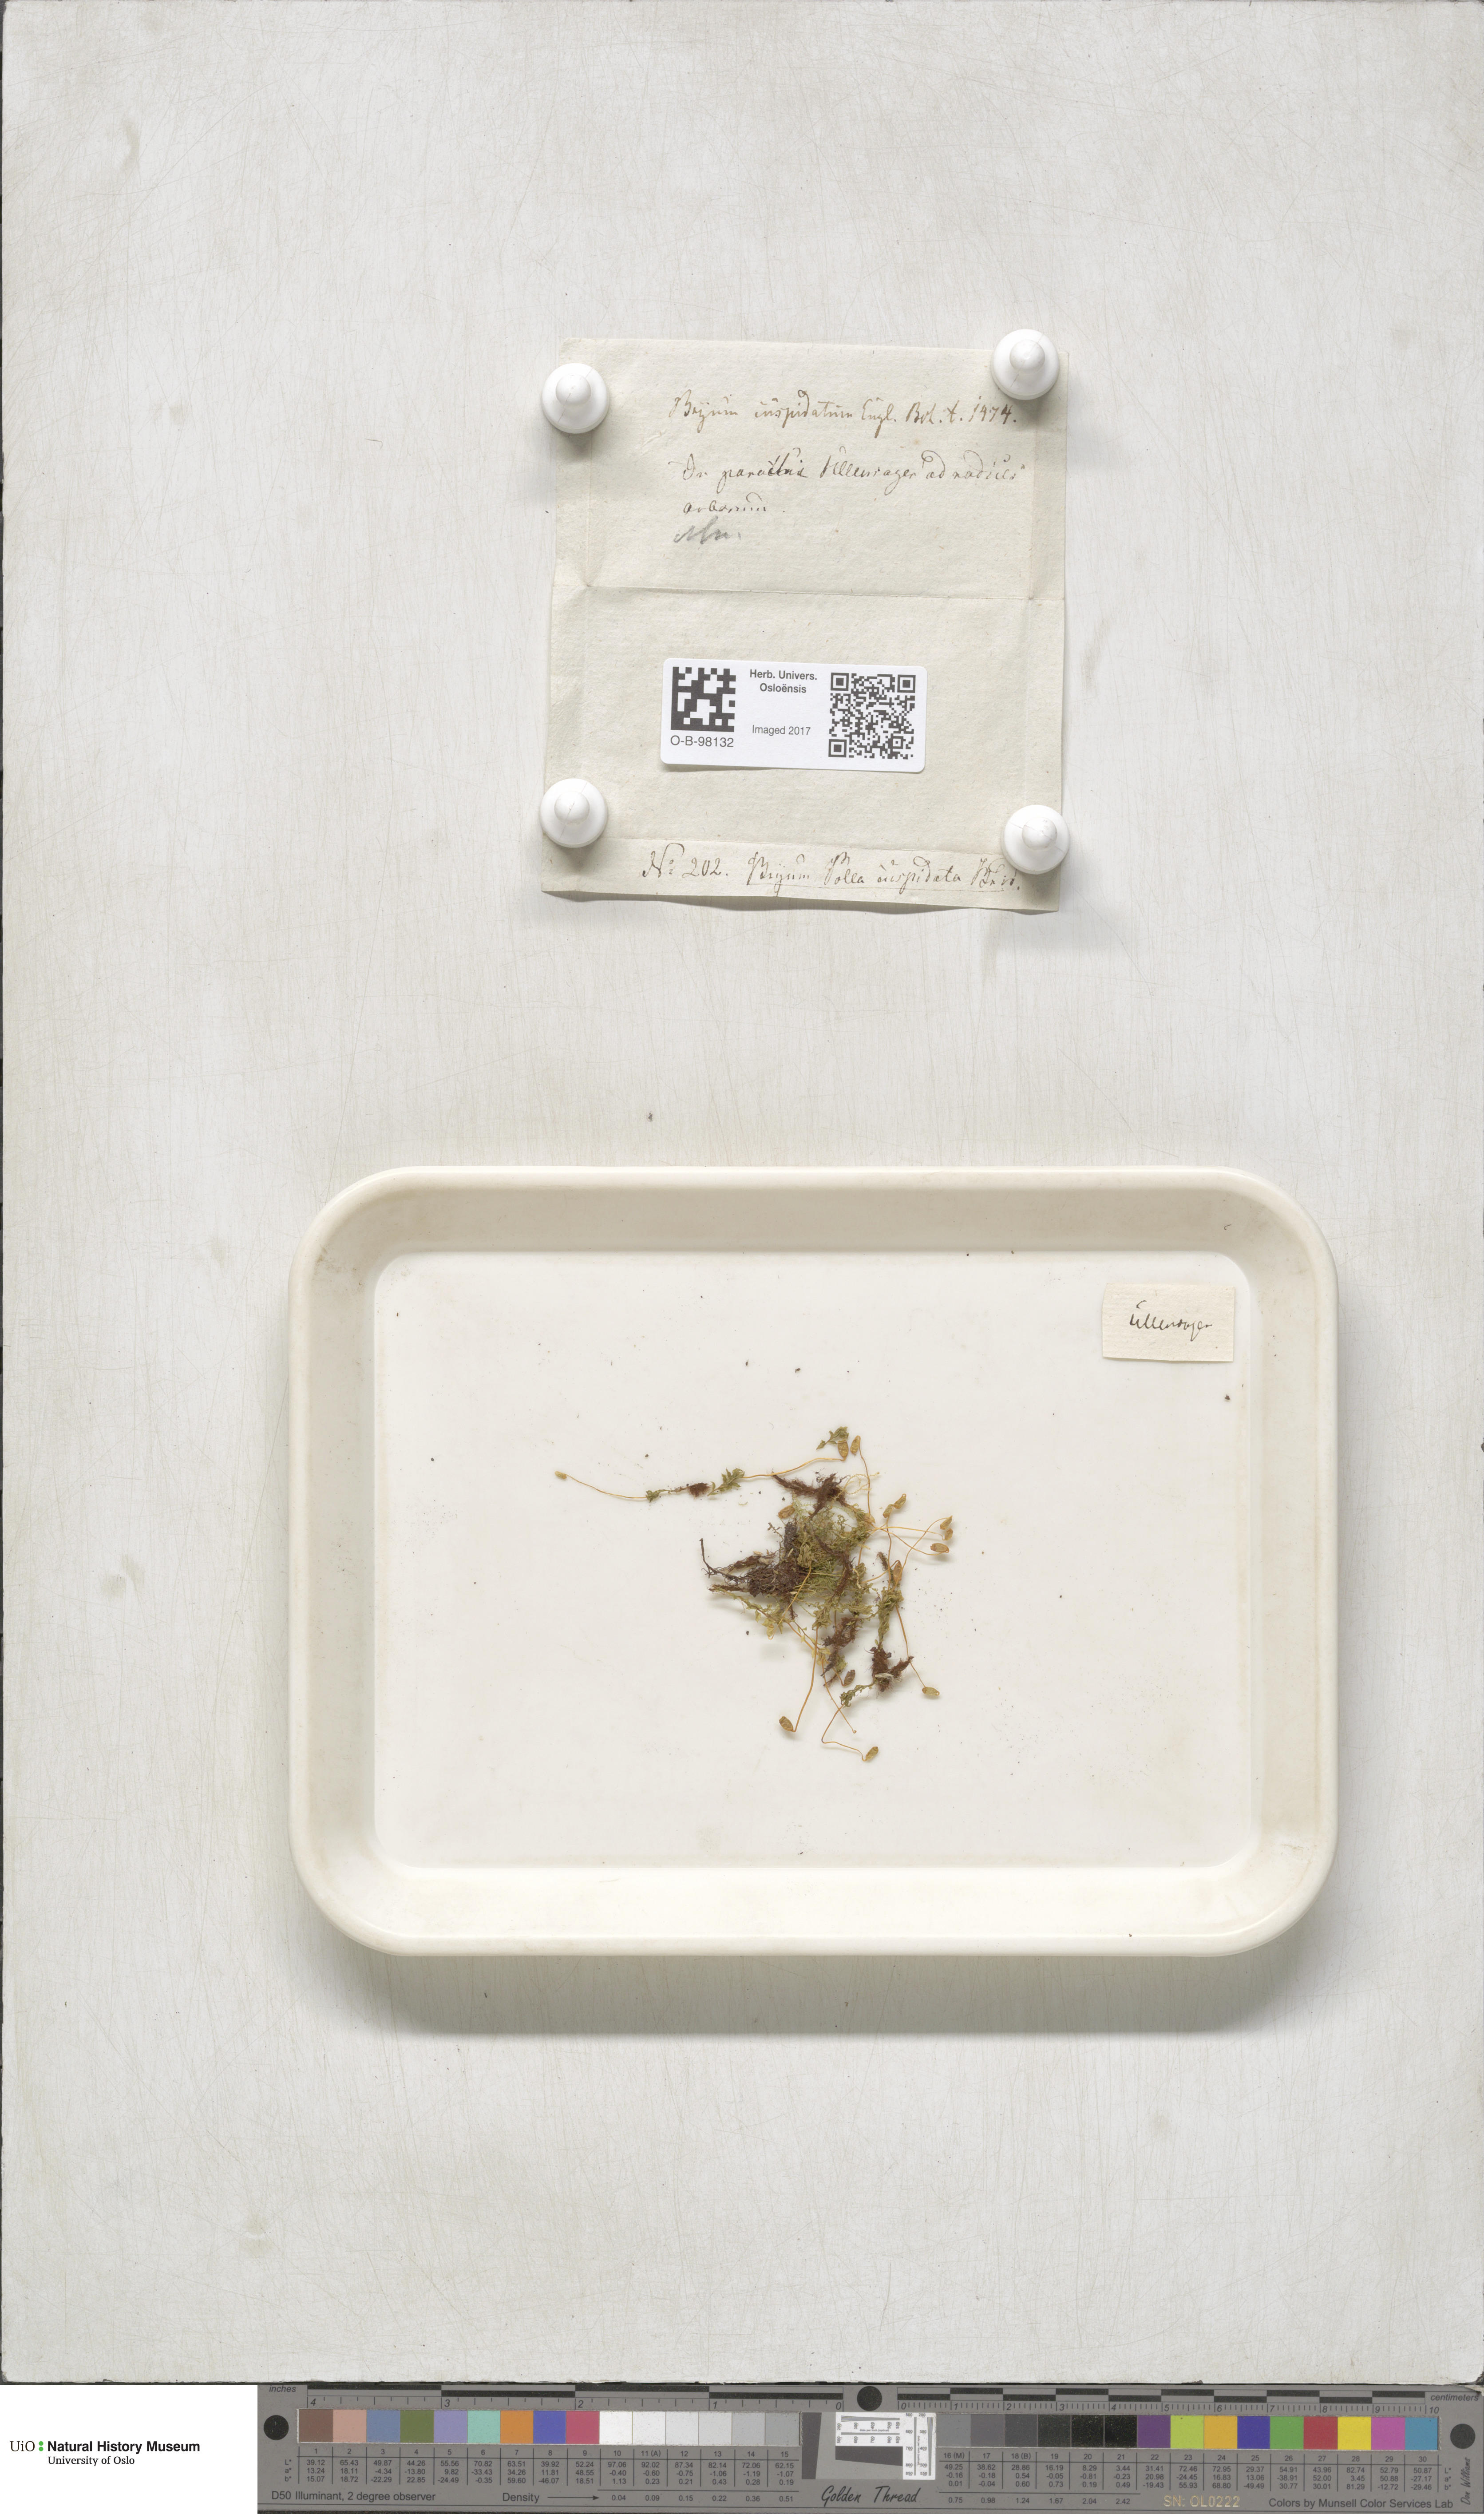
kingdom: Plantae
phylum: Bryophyta
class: Bryopsida
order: Bryales
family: Mniaceae
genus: Plagiomnium
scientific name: Plagiomnium cuspidatum
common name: Woodsy leafy moss
